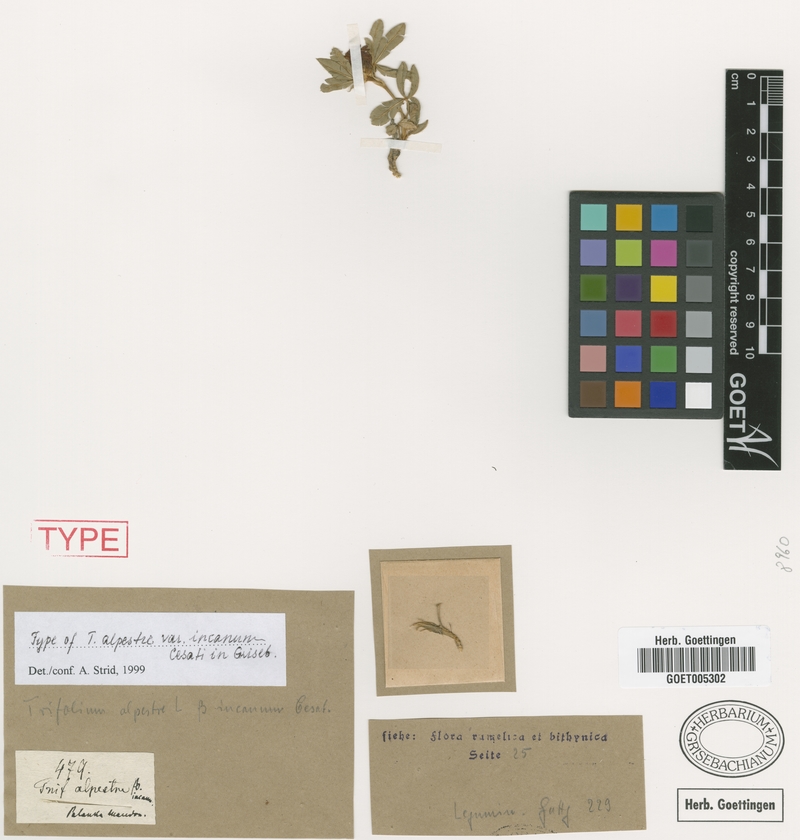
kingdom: Plantae
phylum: Tracheophyta
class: Magnoliopsida
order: Fabales
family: Fabaceae
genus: Trifolium
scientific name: Trifolium alpestre
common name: Owl-head clover
